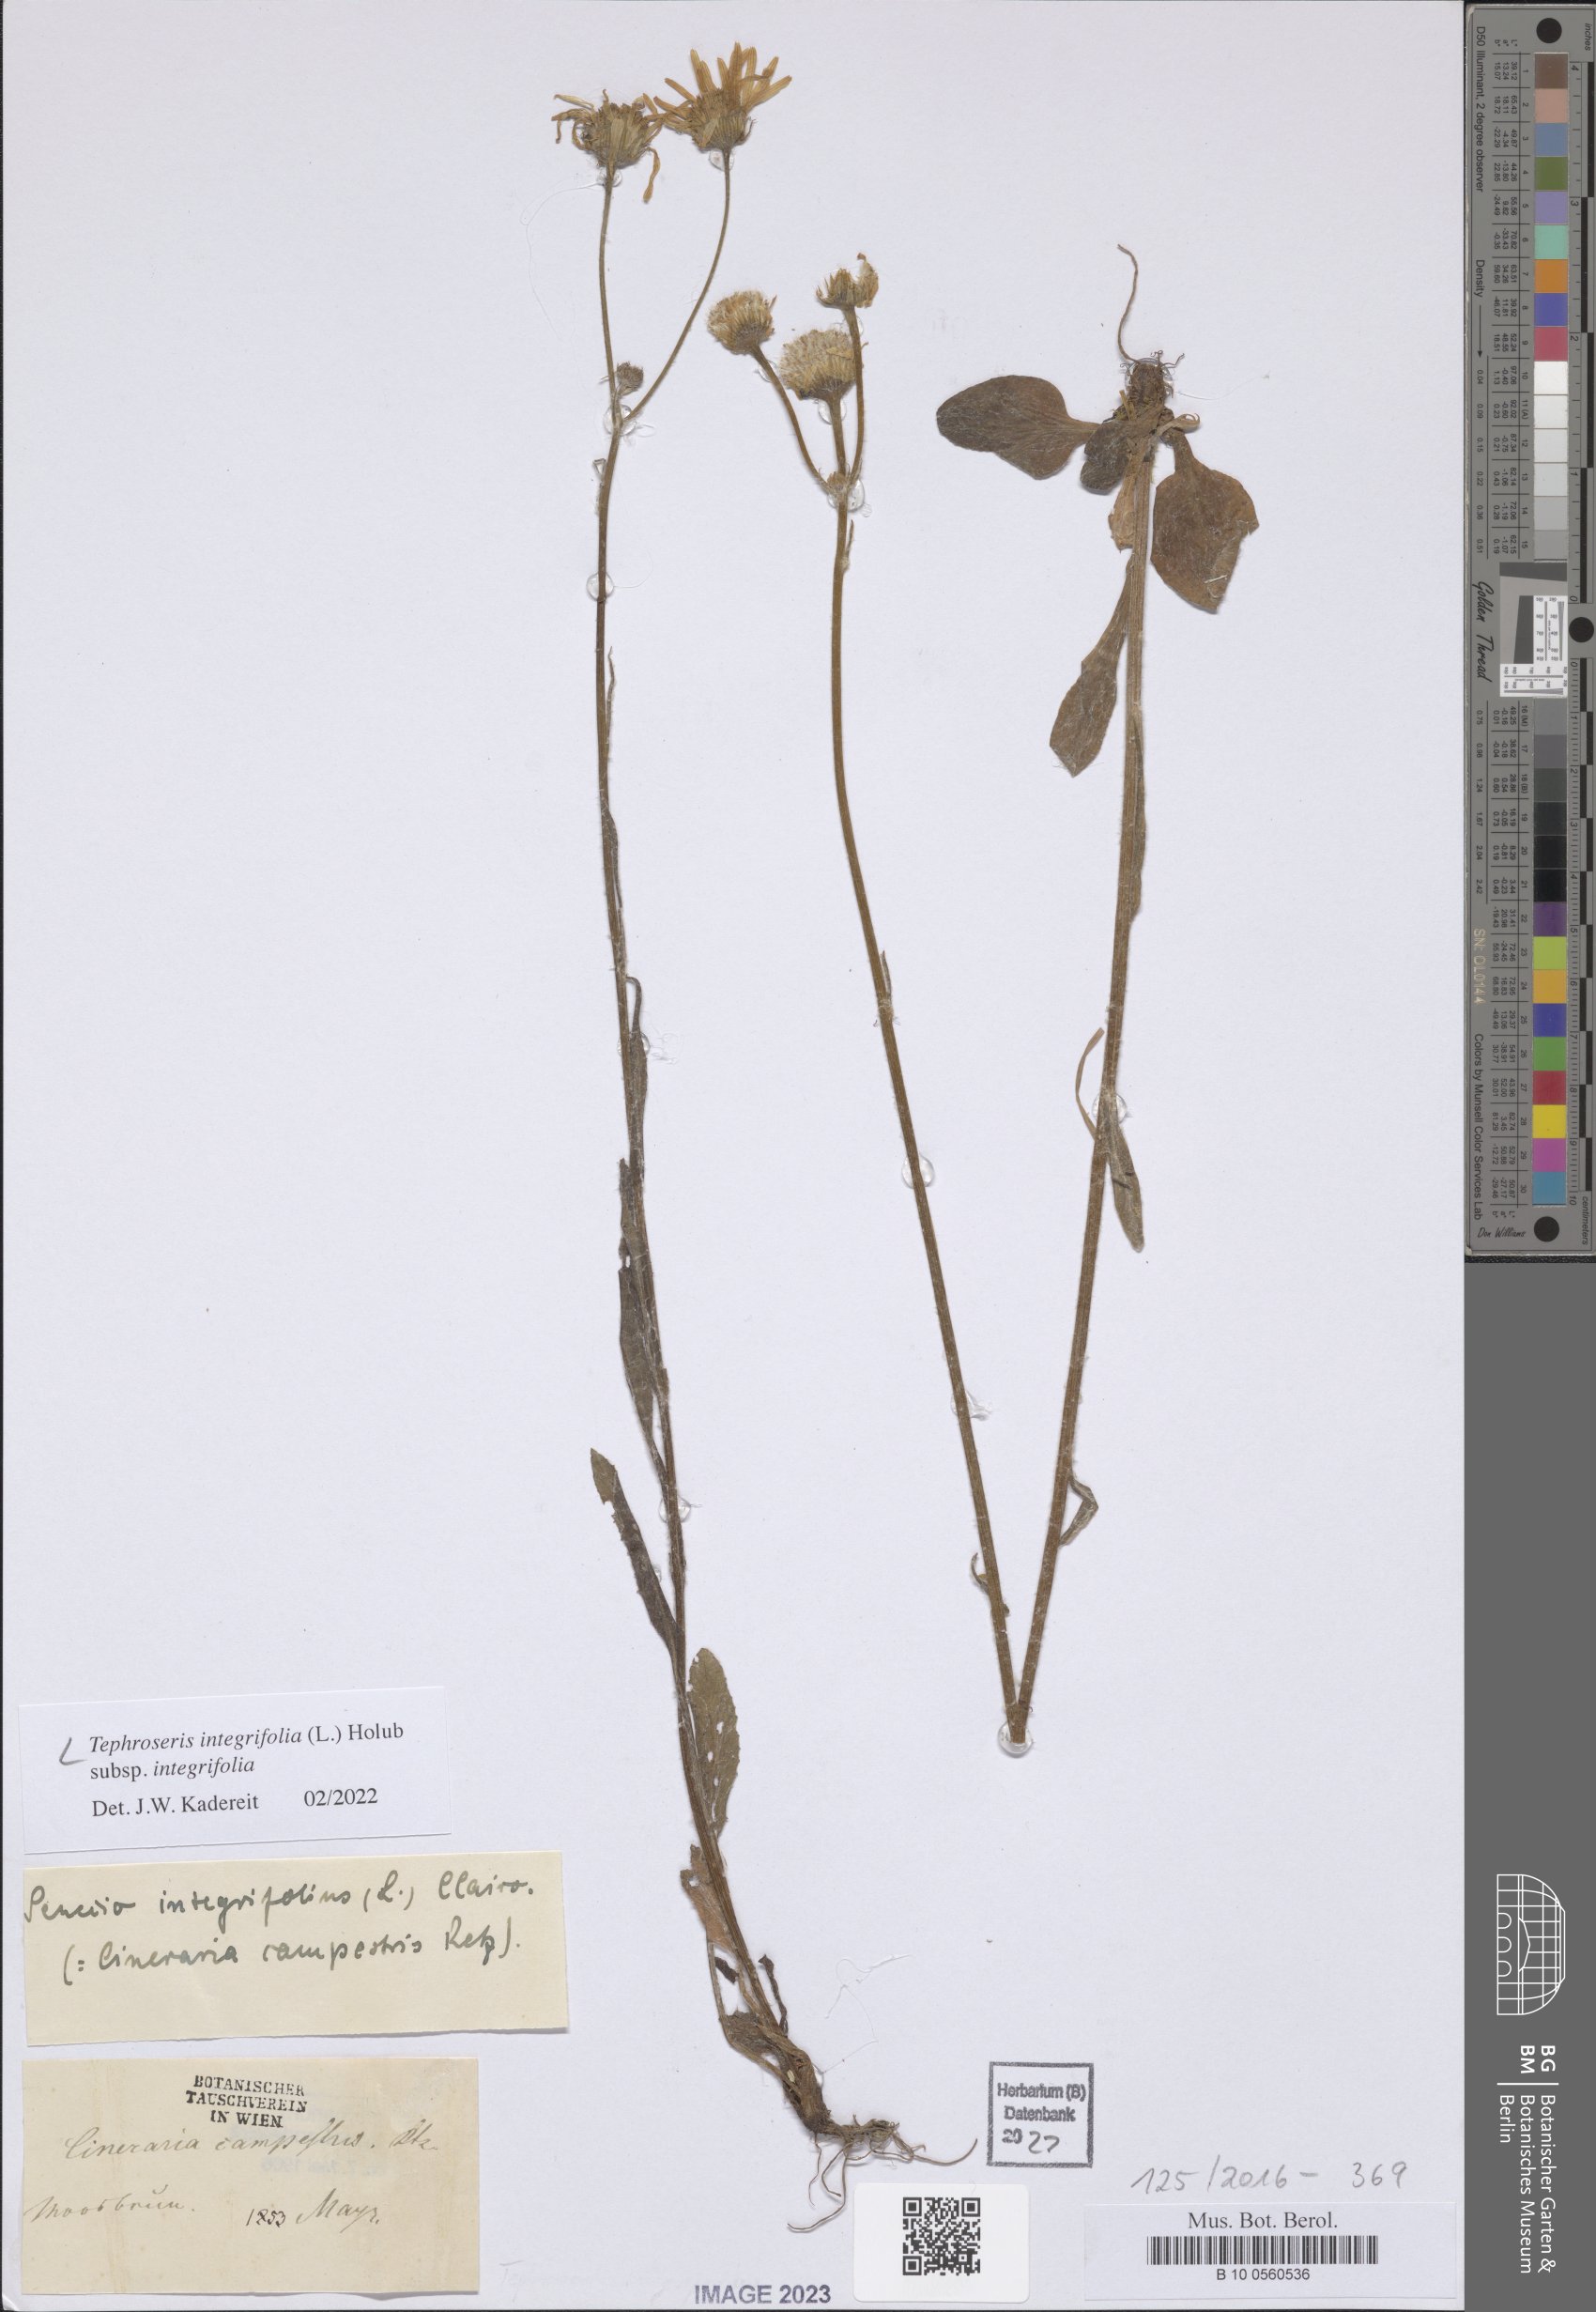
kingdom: Plantae
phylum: Tracheophyta
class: Magnoliopsida
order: Asterales
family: Asteraceae
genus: Tephroseris
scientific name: Tephroseris integrifolia
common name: Field fleawort
